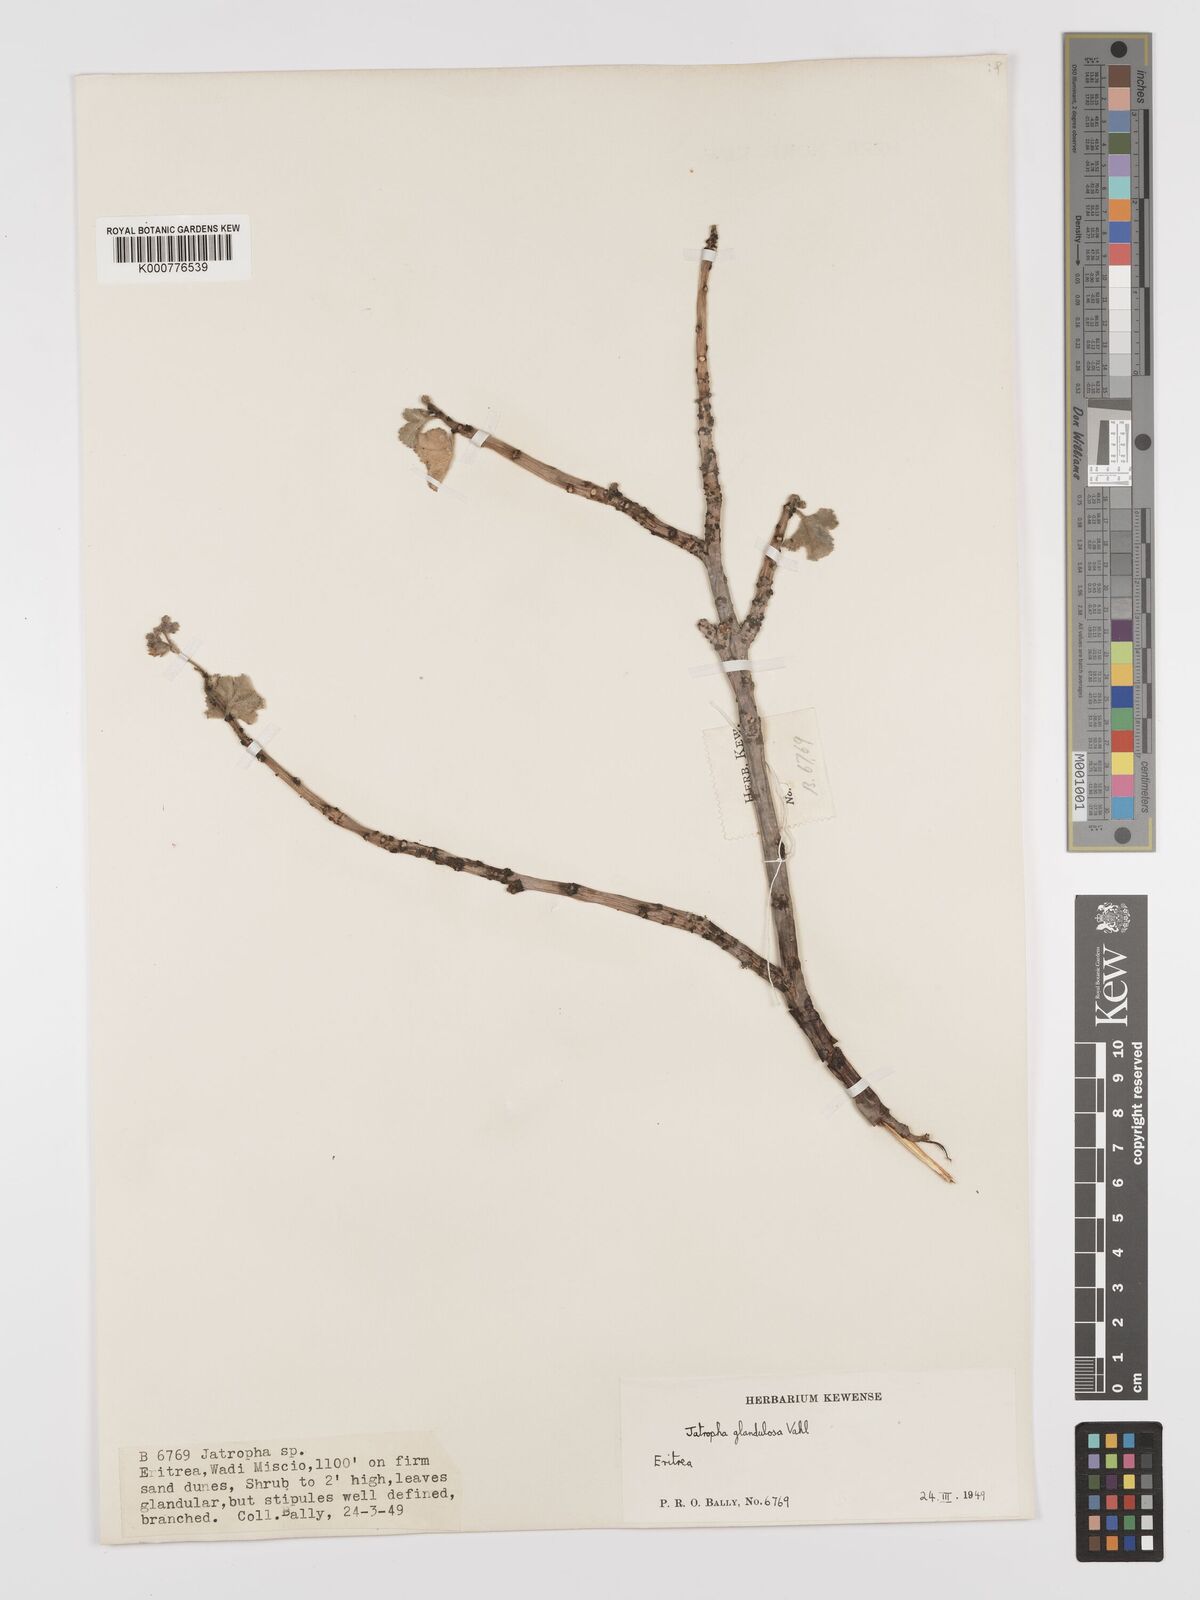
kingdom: Plantae
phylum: Tracheophyta
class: Magnoliopsida
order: Malpighiales
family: Euphorbiaceae
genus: Jatropha
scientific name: Jatropha pelargoniifolia
